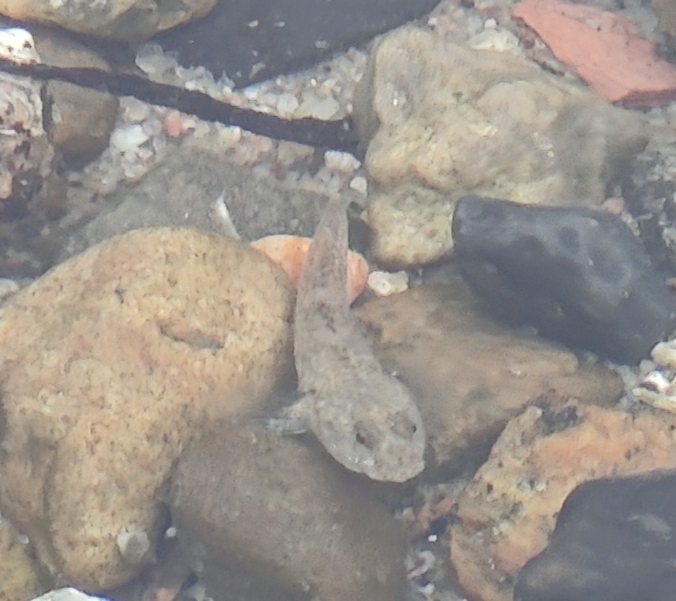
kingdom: Animalia
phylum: Chordata
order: Perciformes
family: Gobiidae
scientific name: Gobiidae
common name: Kutlingefamilien
